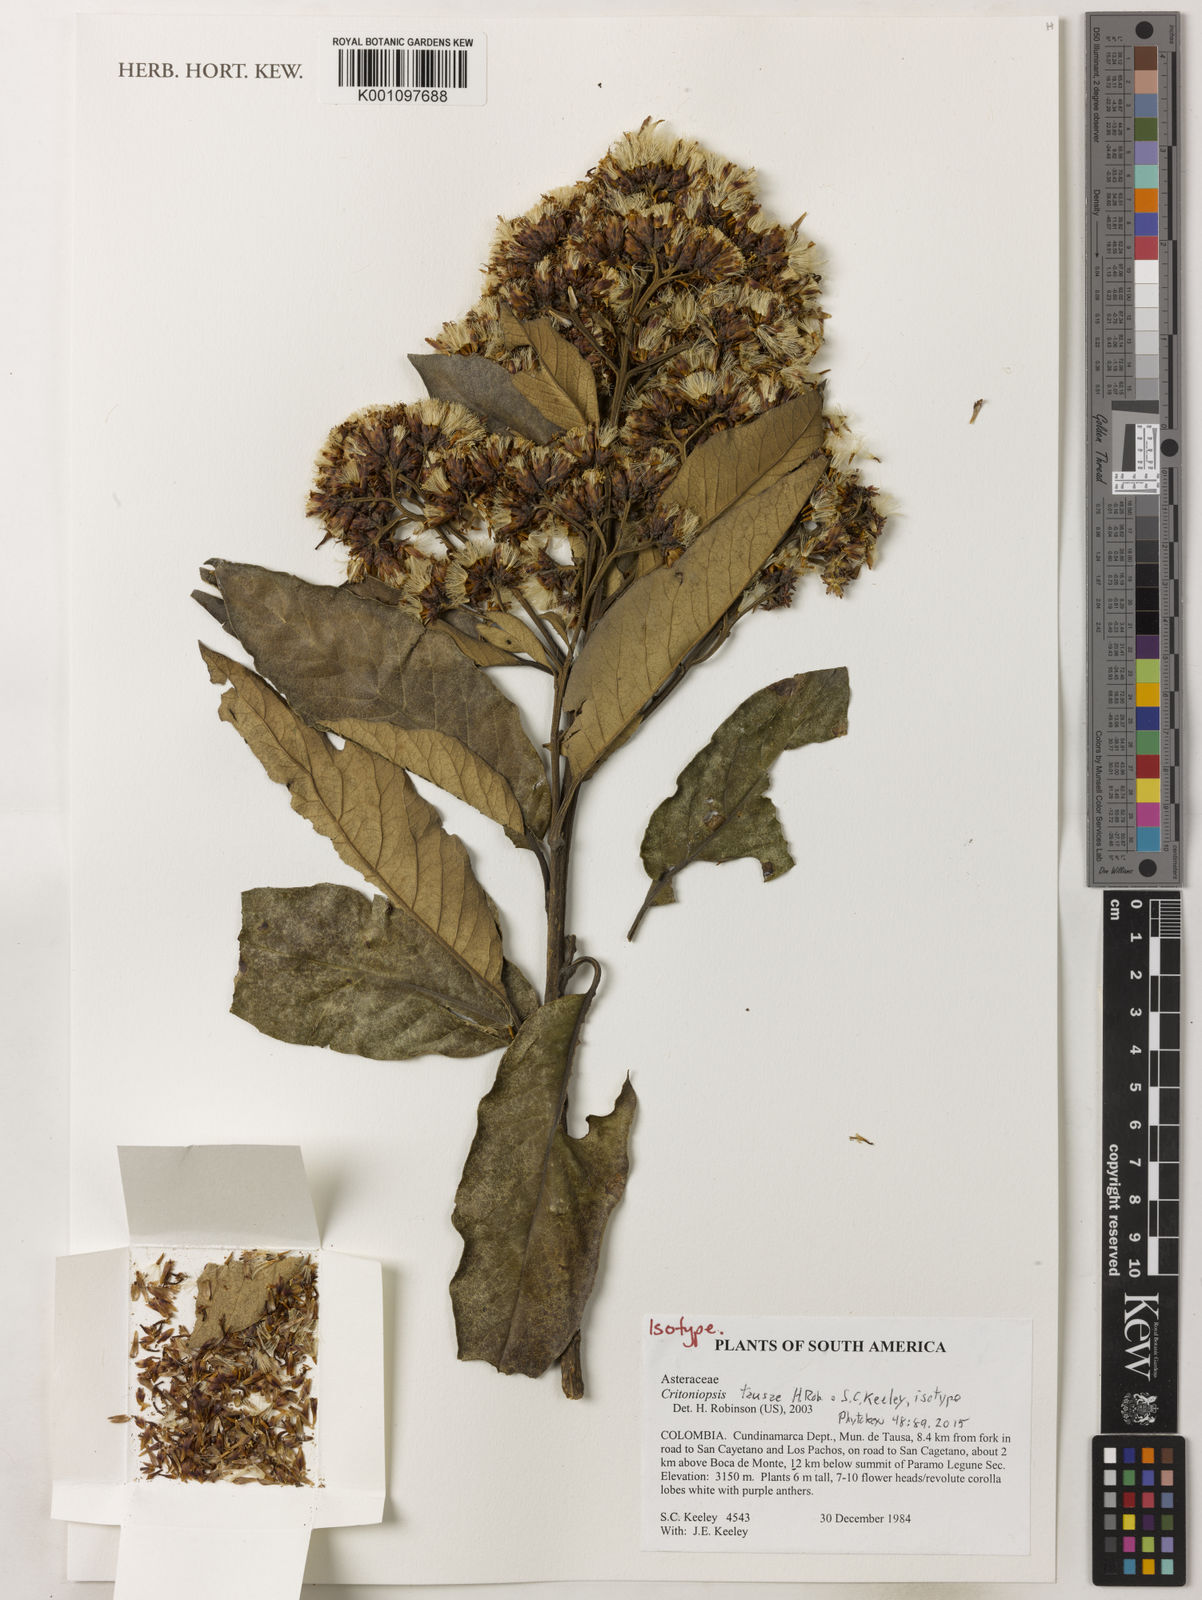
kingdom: Plantae
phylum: Tracheophyta
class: Magnoliopsida
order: Asterales
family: Asteraceae
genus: Critoniopsis
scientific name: Critoniopsis tausae
